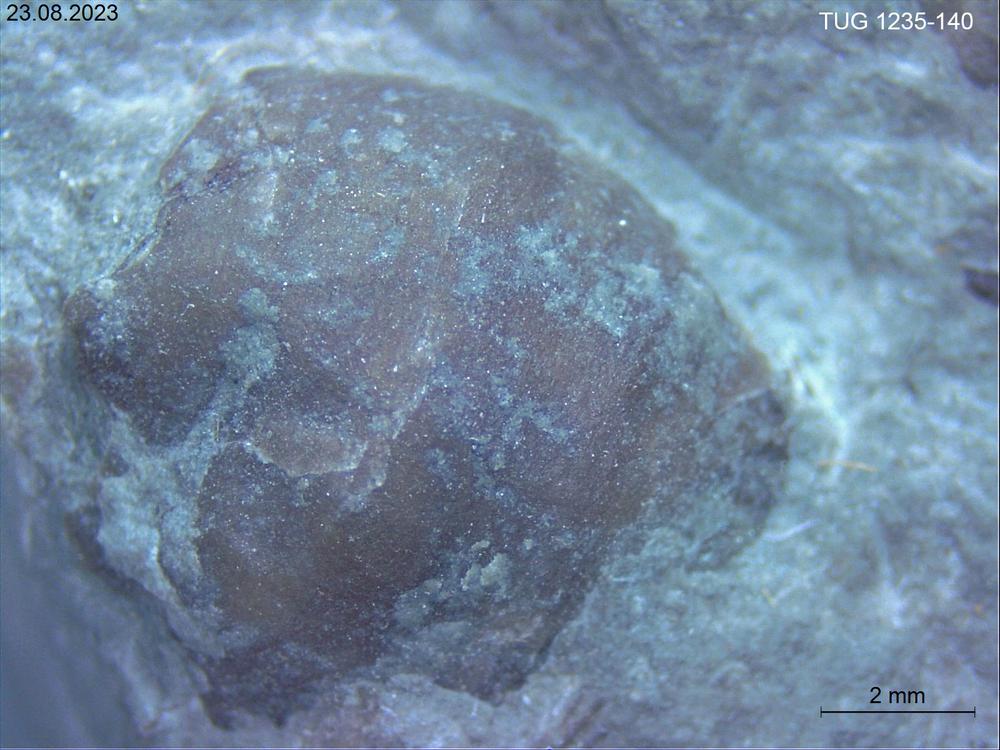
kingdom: Animalia
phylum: Brachiopoda
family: Oldhaminidae
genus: Eoplectodonta
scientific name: Eoplectodonta
